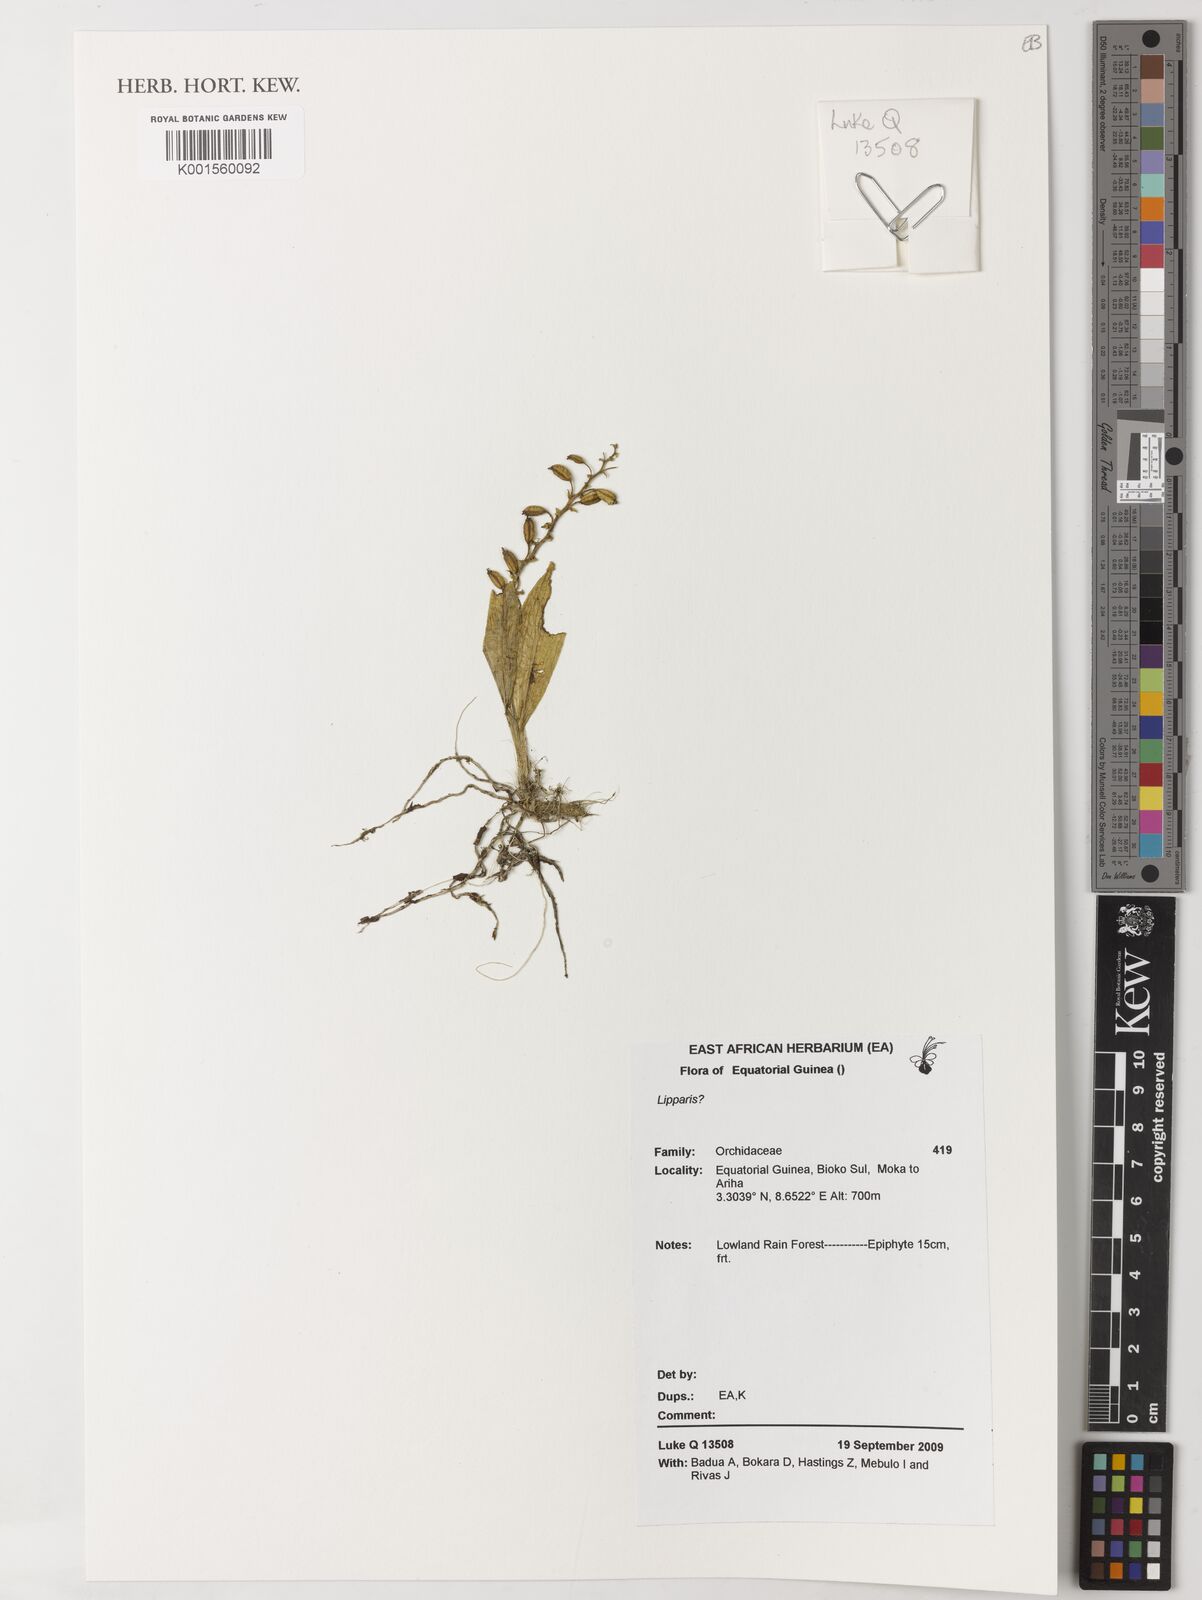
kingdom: Plantae
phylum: Tracheophyta
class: Liliopsida
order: Asparagales
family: Orchidaceae
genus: Liparis
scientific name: Liparis
